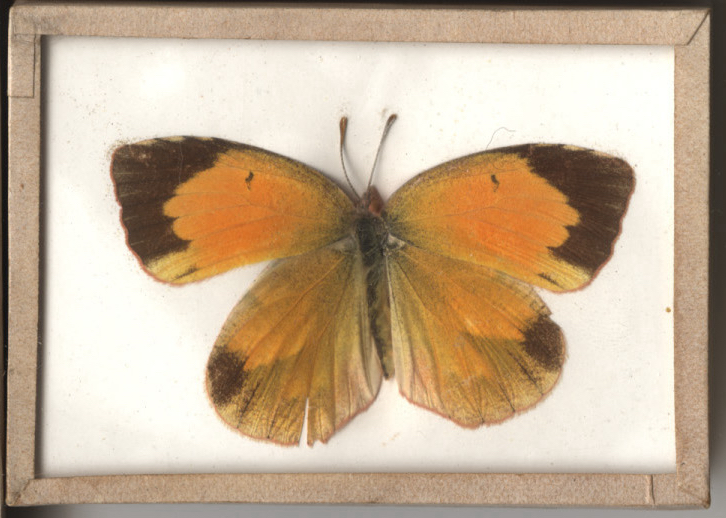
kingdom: Animalia
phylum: Arthropoda
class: Insecta
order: Lepidoptera
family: Pieridae
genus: Abaeis
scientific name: Abaeis nicippe
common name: Sleepy Orange
